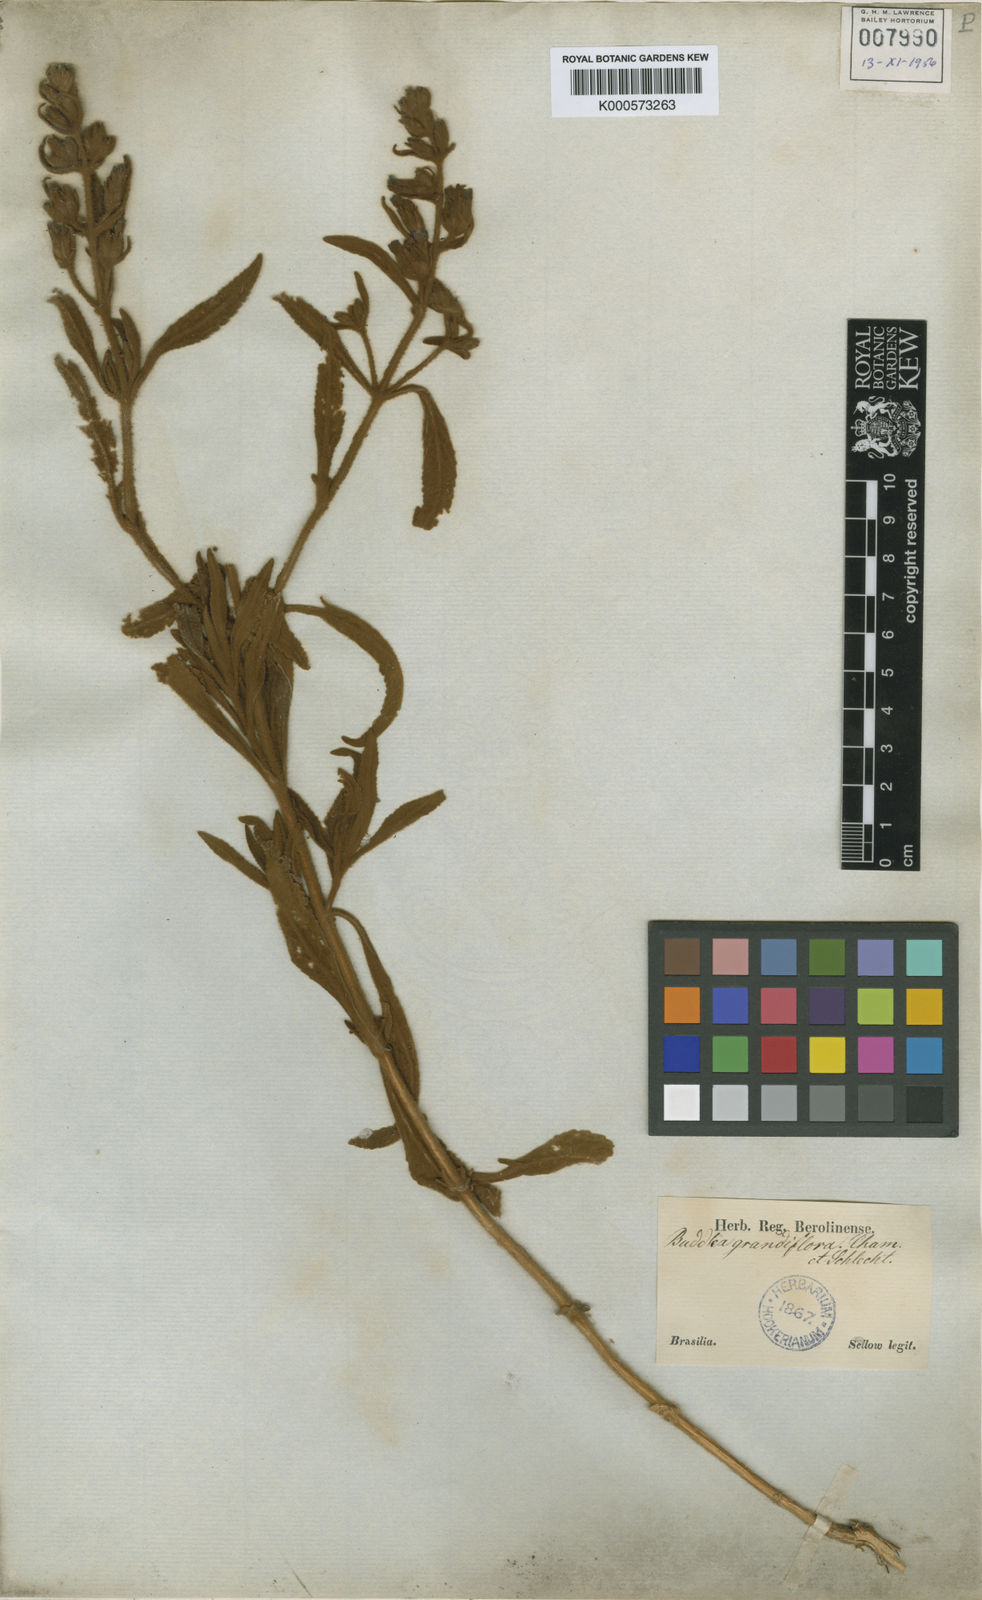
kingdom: Plantae
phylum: Tracheophyta
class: Magnoliopsida
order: Lamiales
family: Scrophulariaceae
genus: Buddleja
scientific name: Buddleja grandiflora
